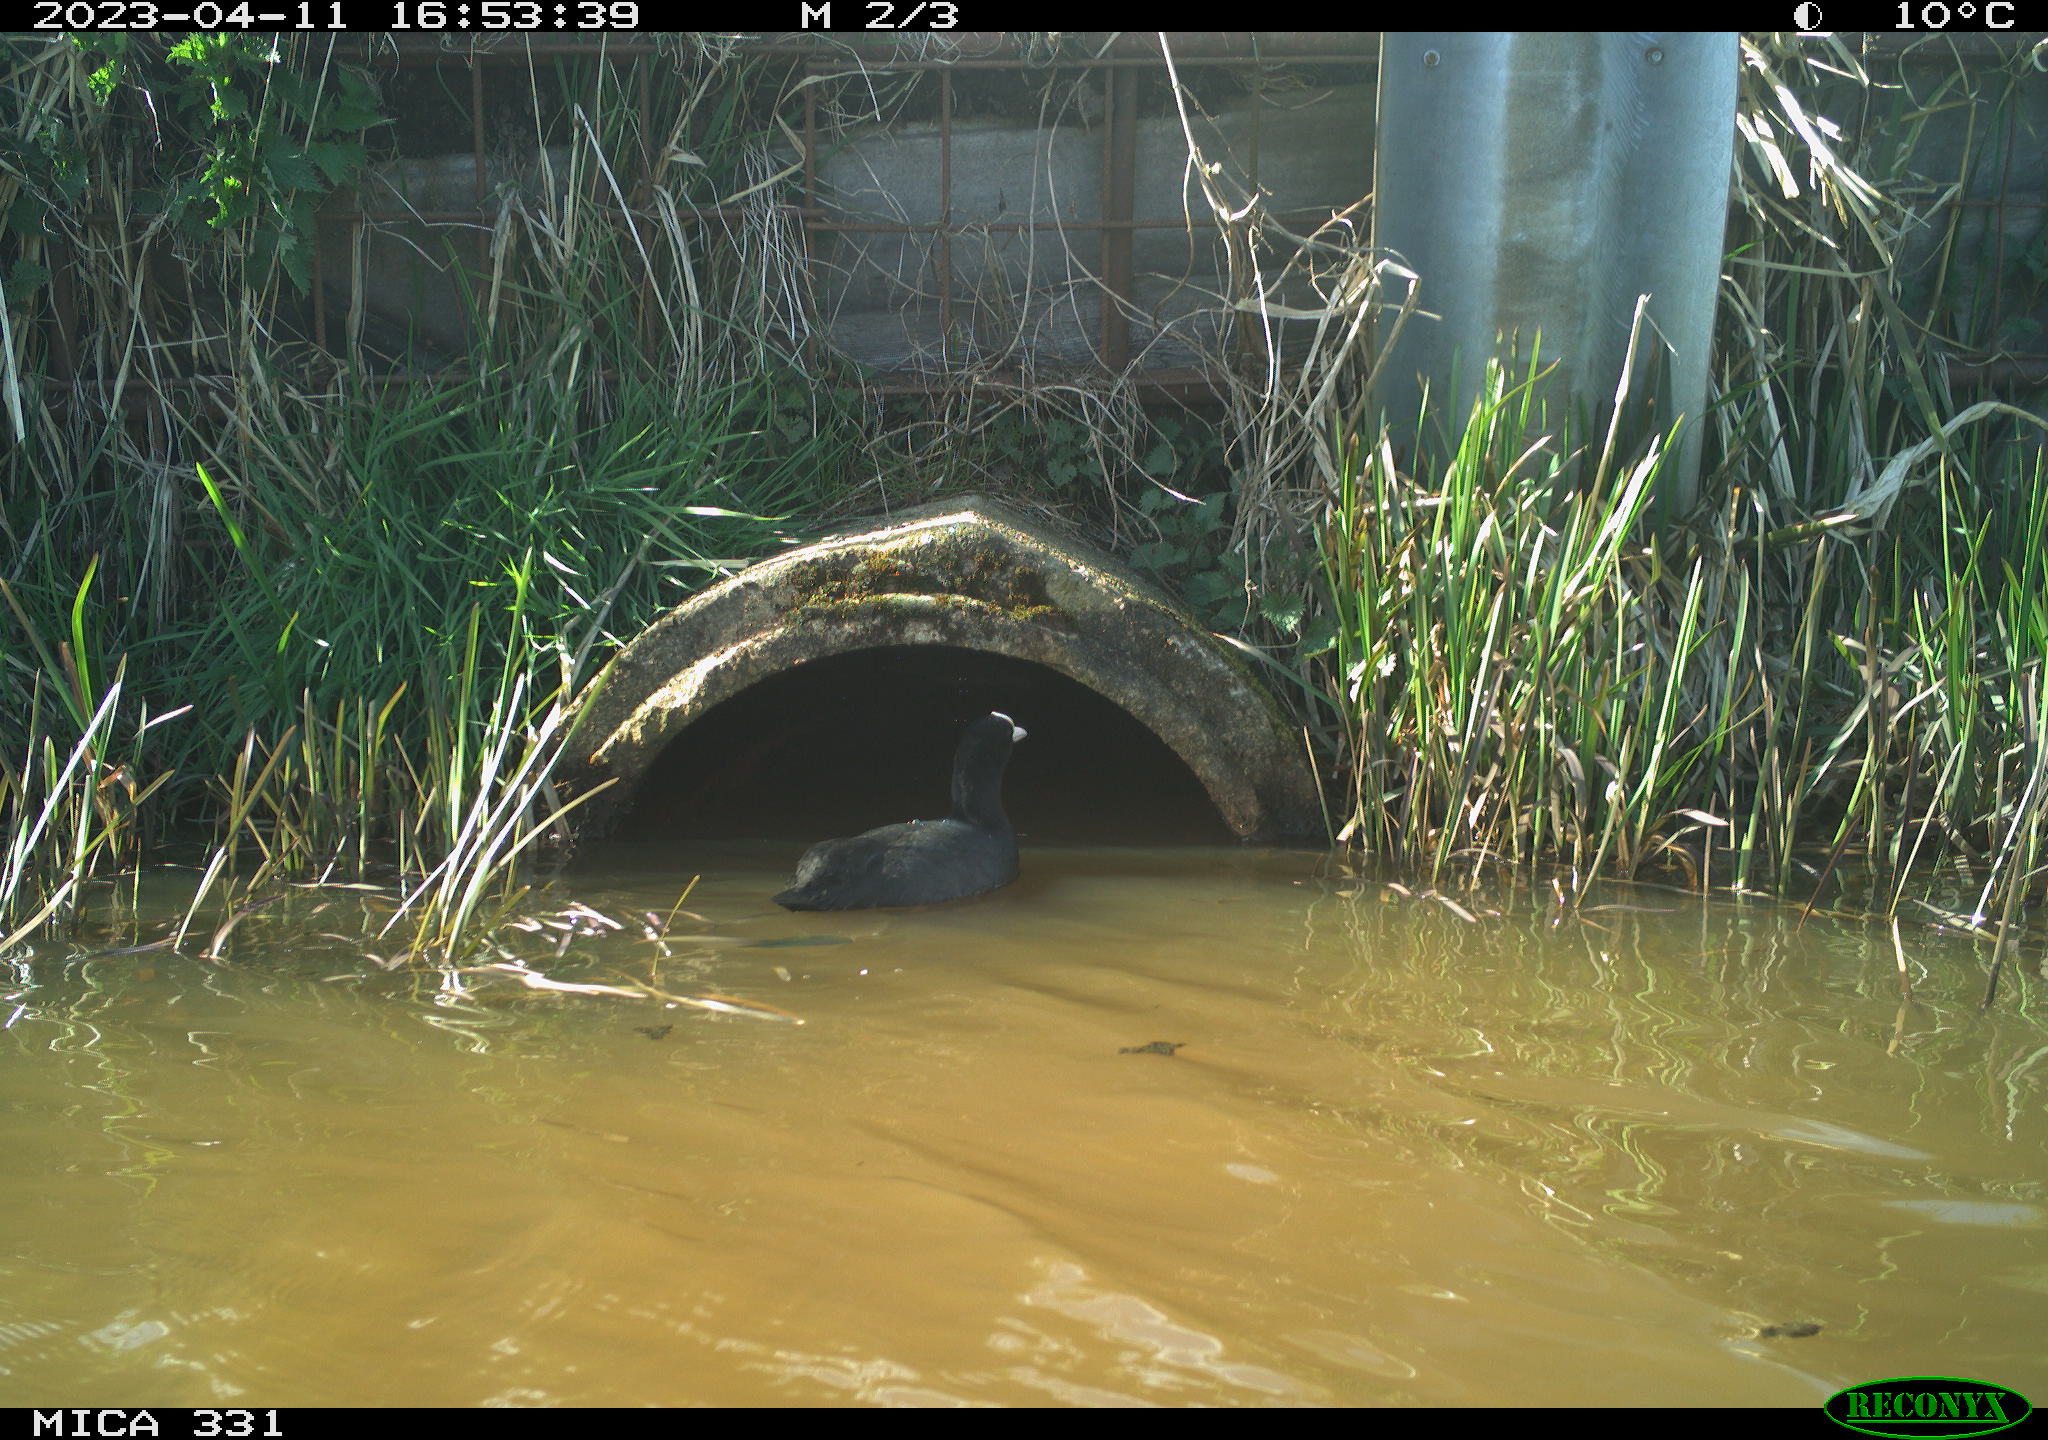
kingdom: Animalia
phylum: Chordata
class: Aves
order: Gruiformes
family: Rallidae
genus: Gallinula
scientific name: Gallinula chloropus
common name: Common moorhen
